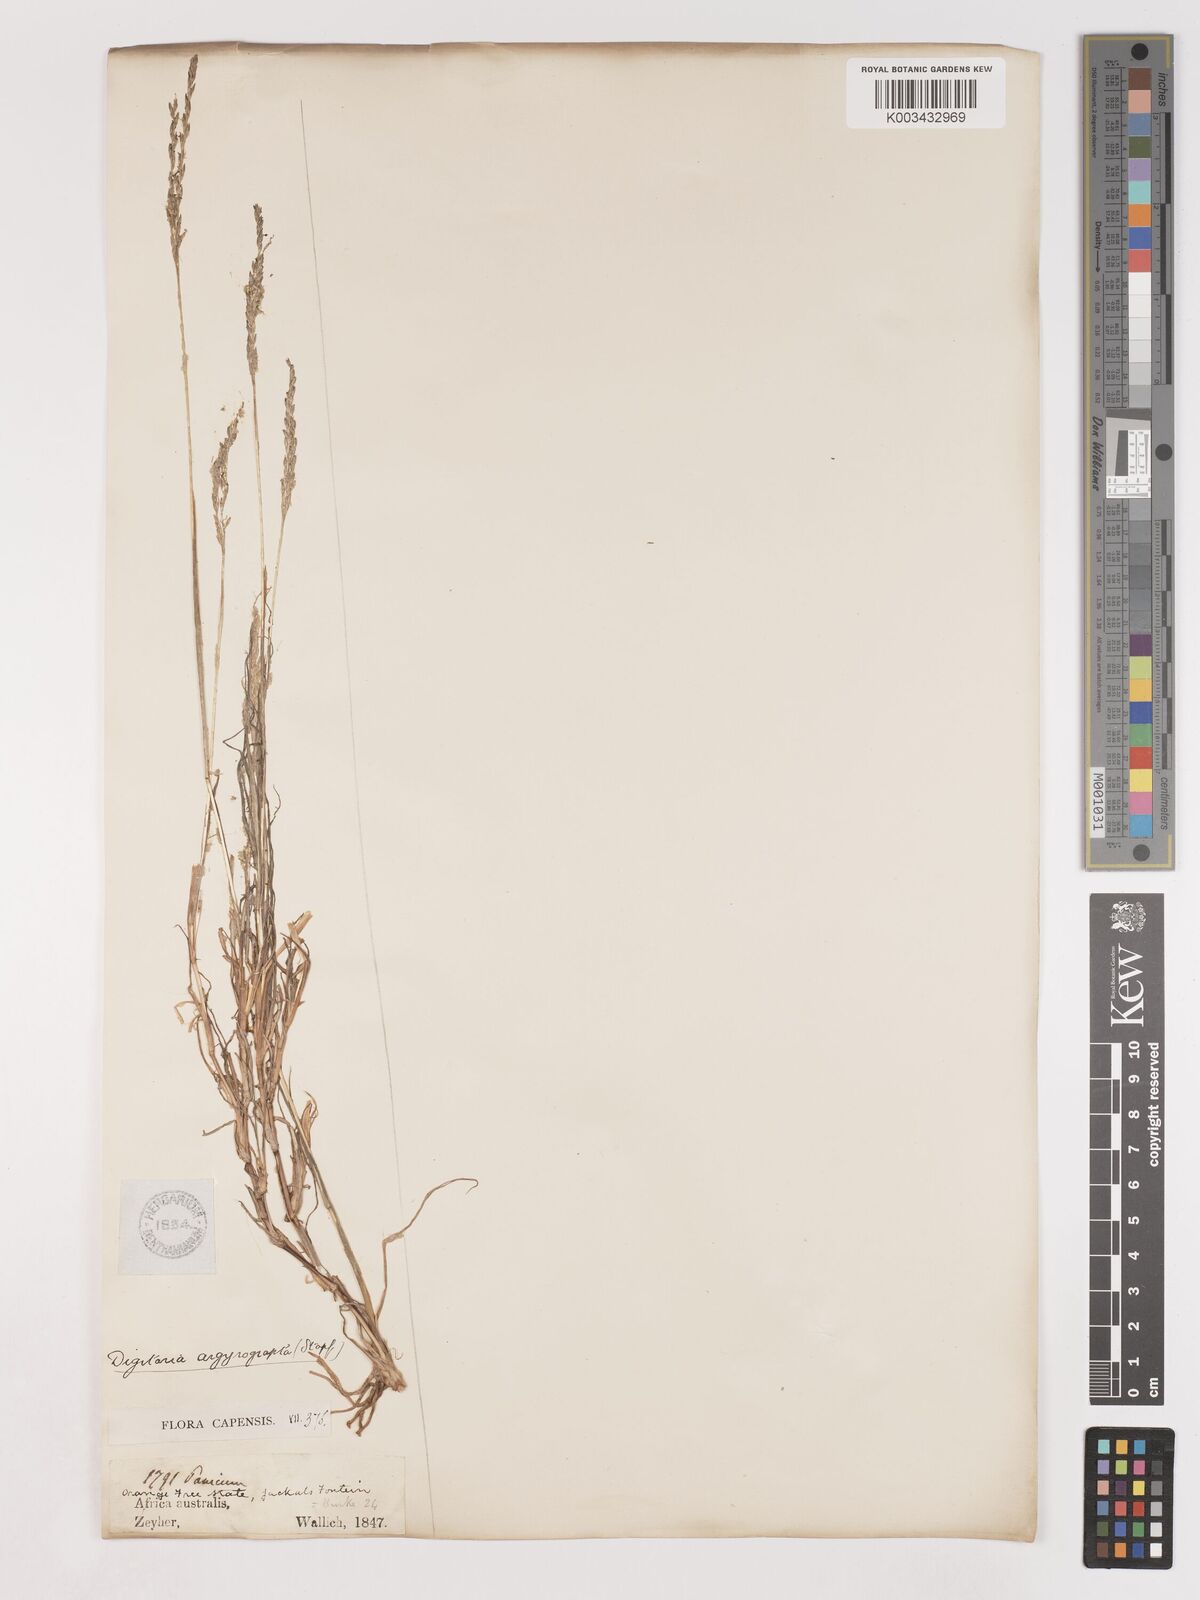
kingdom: Plantae
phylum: Tracheophyta
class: Liliopsida
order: Poales
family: Poaceae
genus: Digitaria
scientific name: Digitaria argyrograpta
